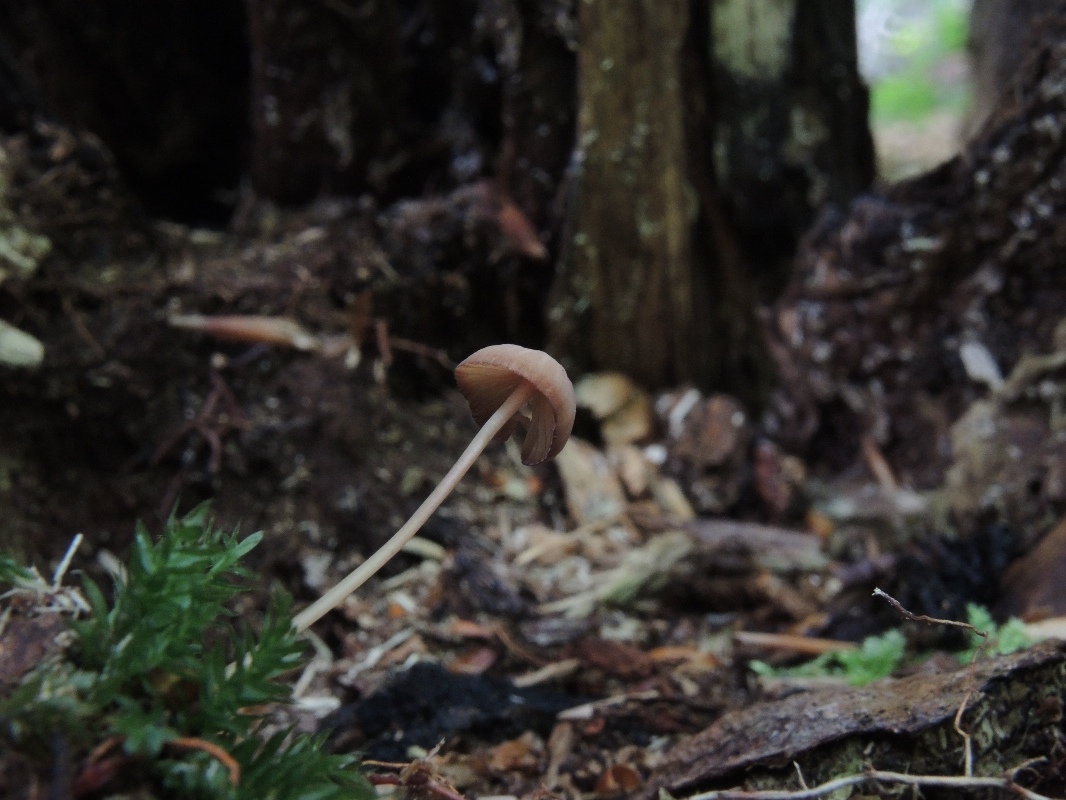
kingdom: Fungi
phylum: Basidiomycota
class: Agaricomycetes
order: Agaricales
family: Mycenaceae
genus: Mycena
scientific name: Mycena sanguinolenta
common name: rødmælket huesvamp
